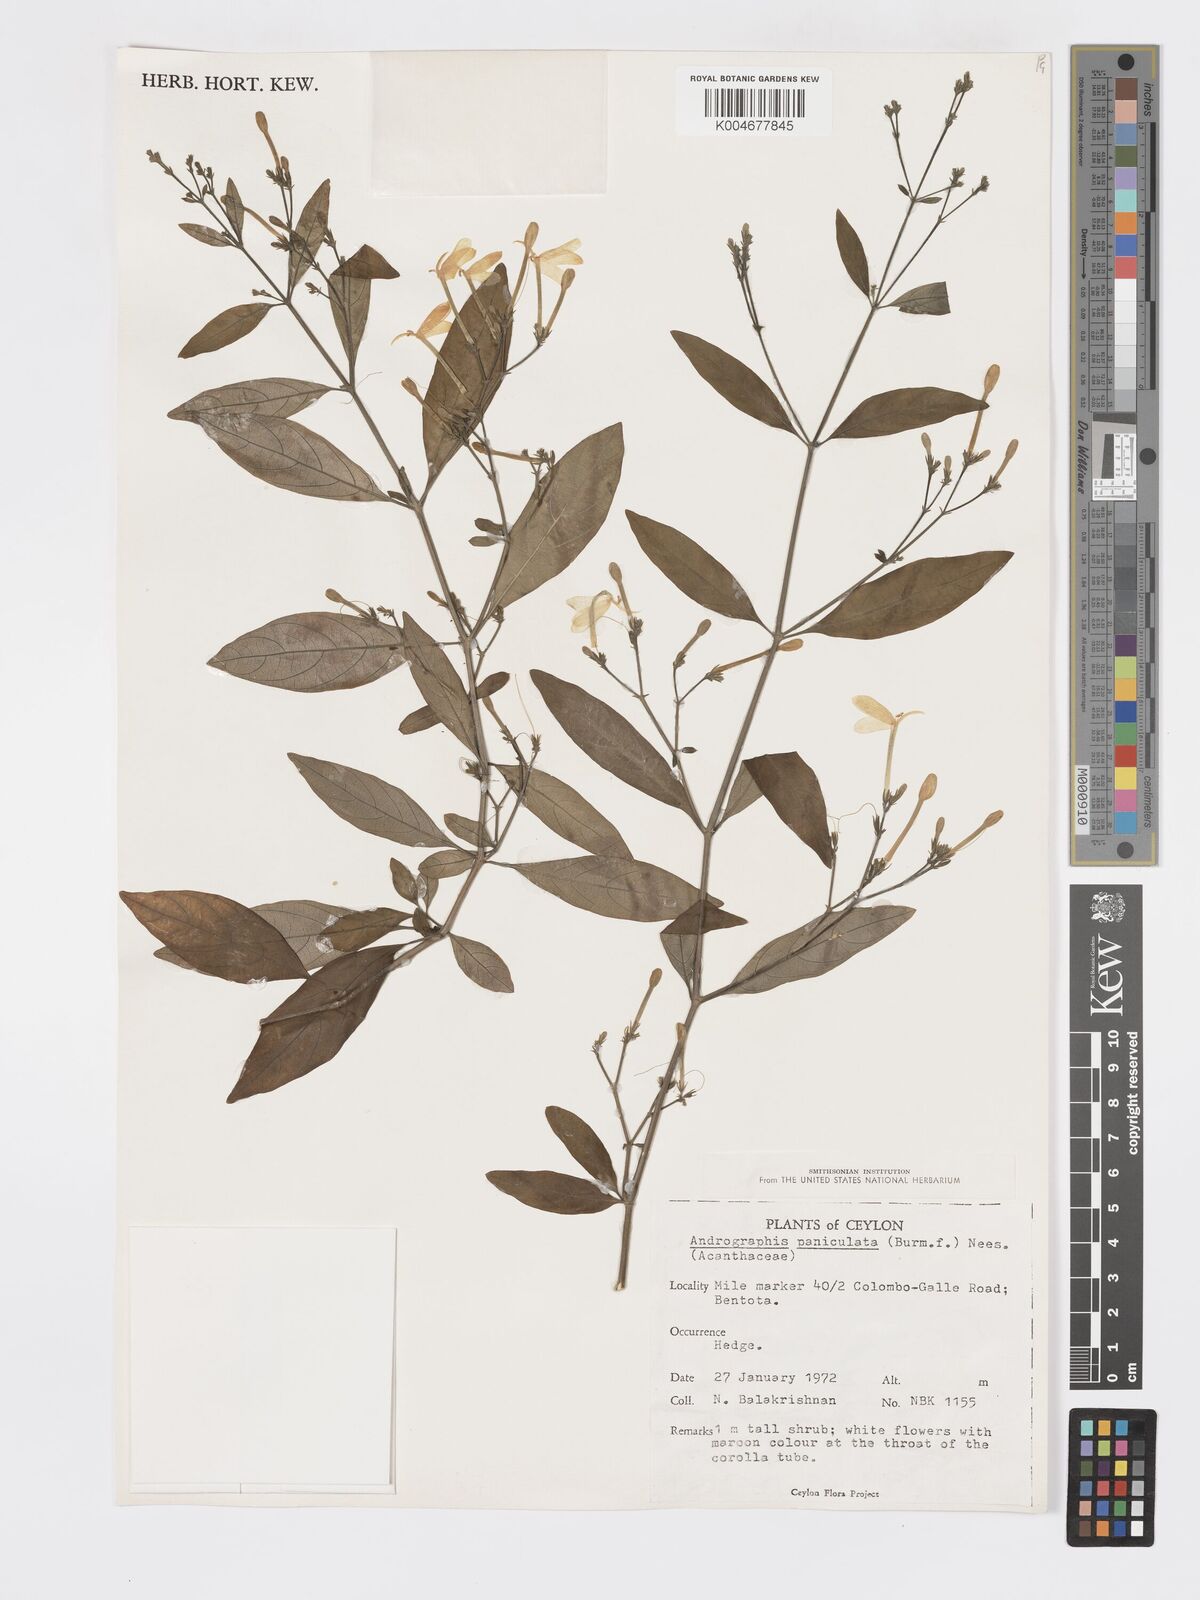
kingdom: Plantae
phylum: Tracheophyta
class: Magnoliopsida
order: Lamiales
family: Acanthaceae
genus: Rhinacanthus
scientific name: Rhinacanthus nasutus
